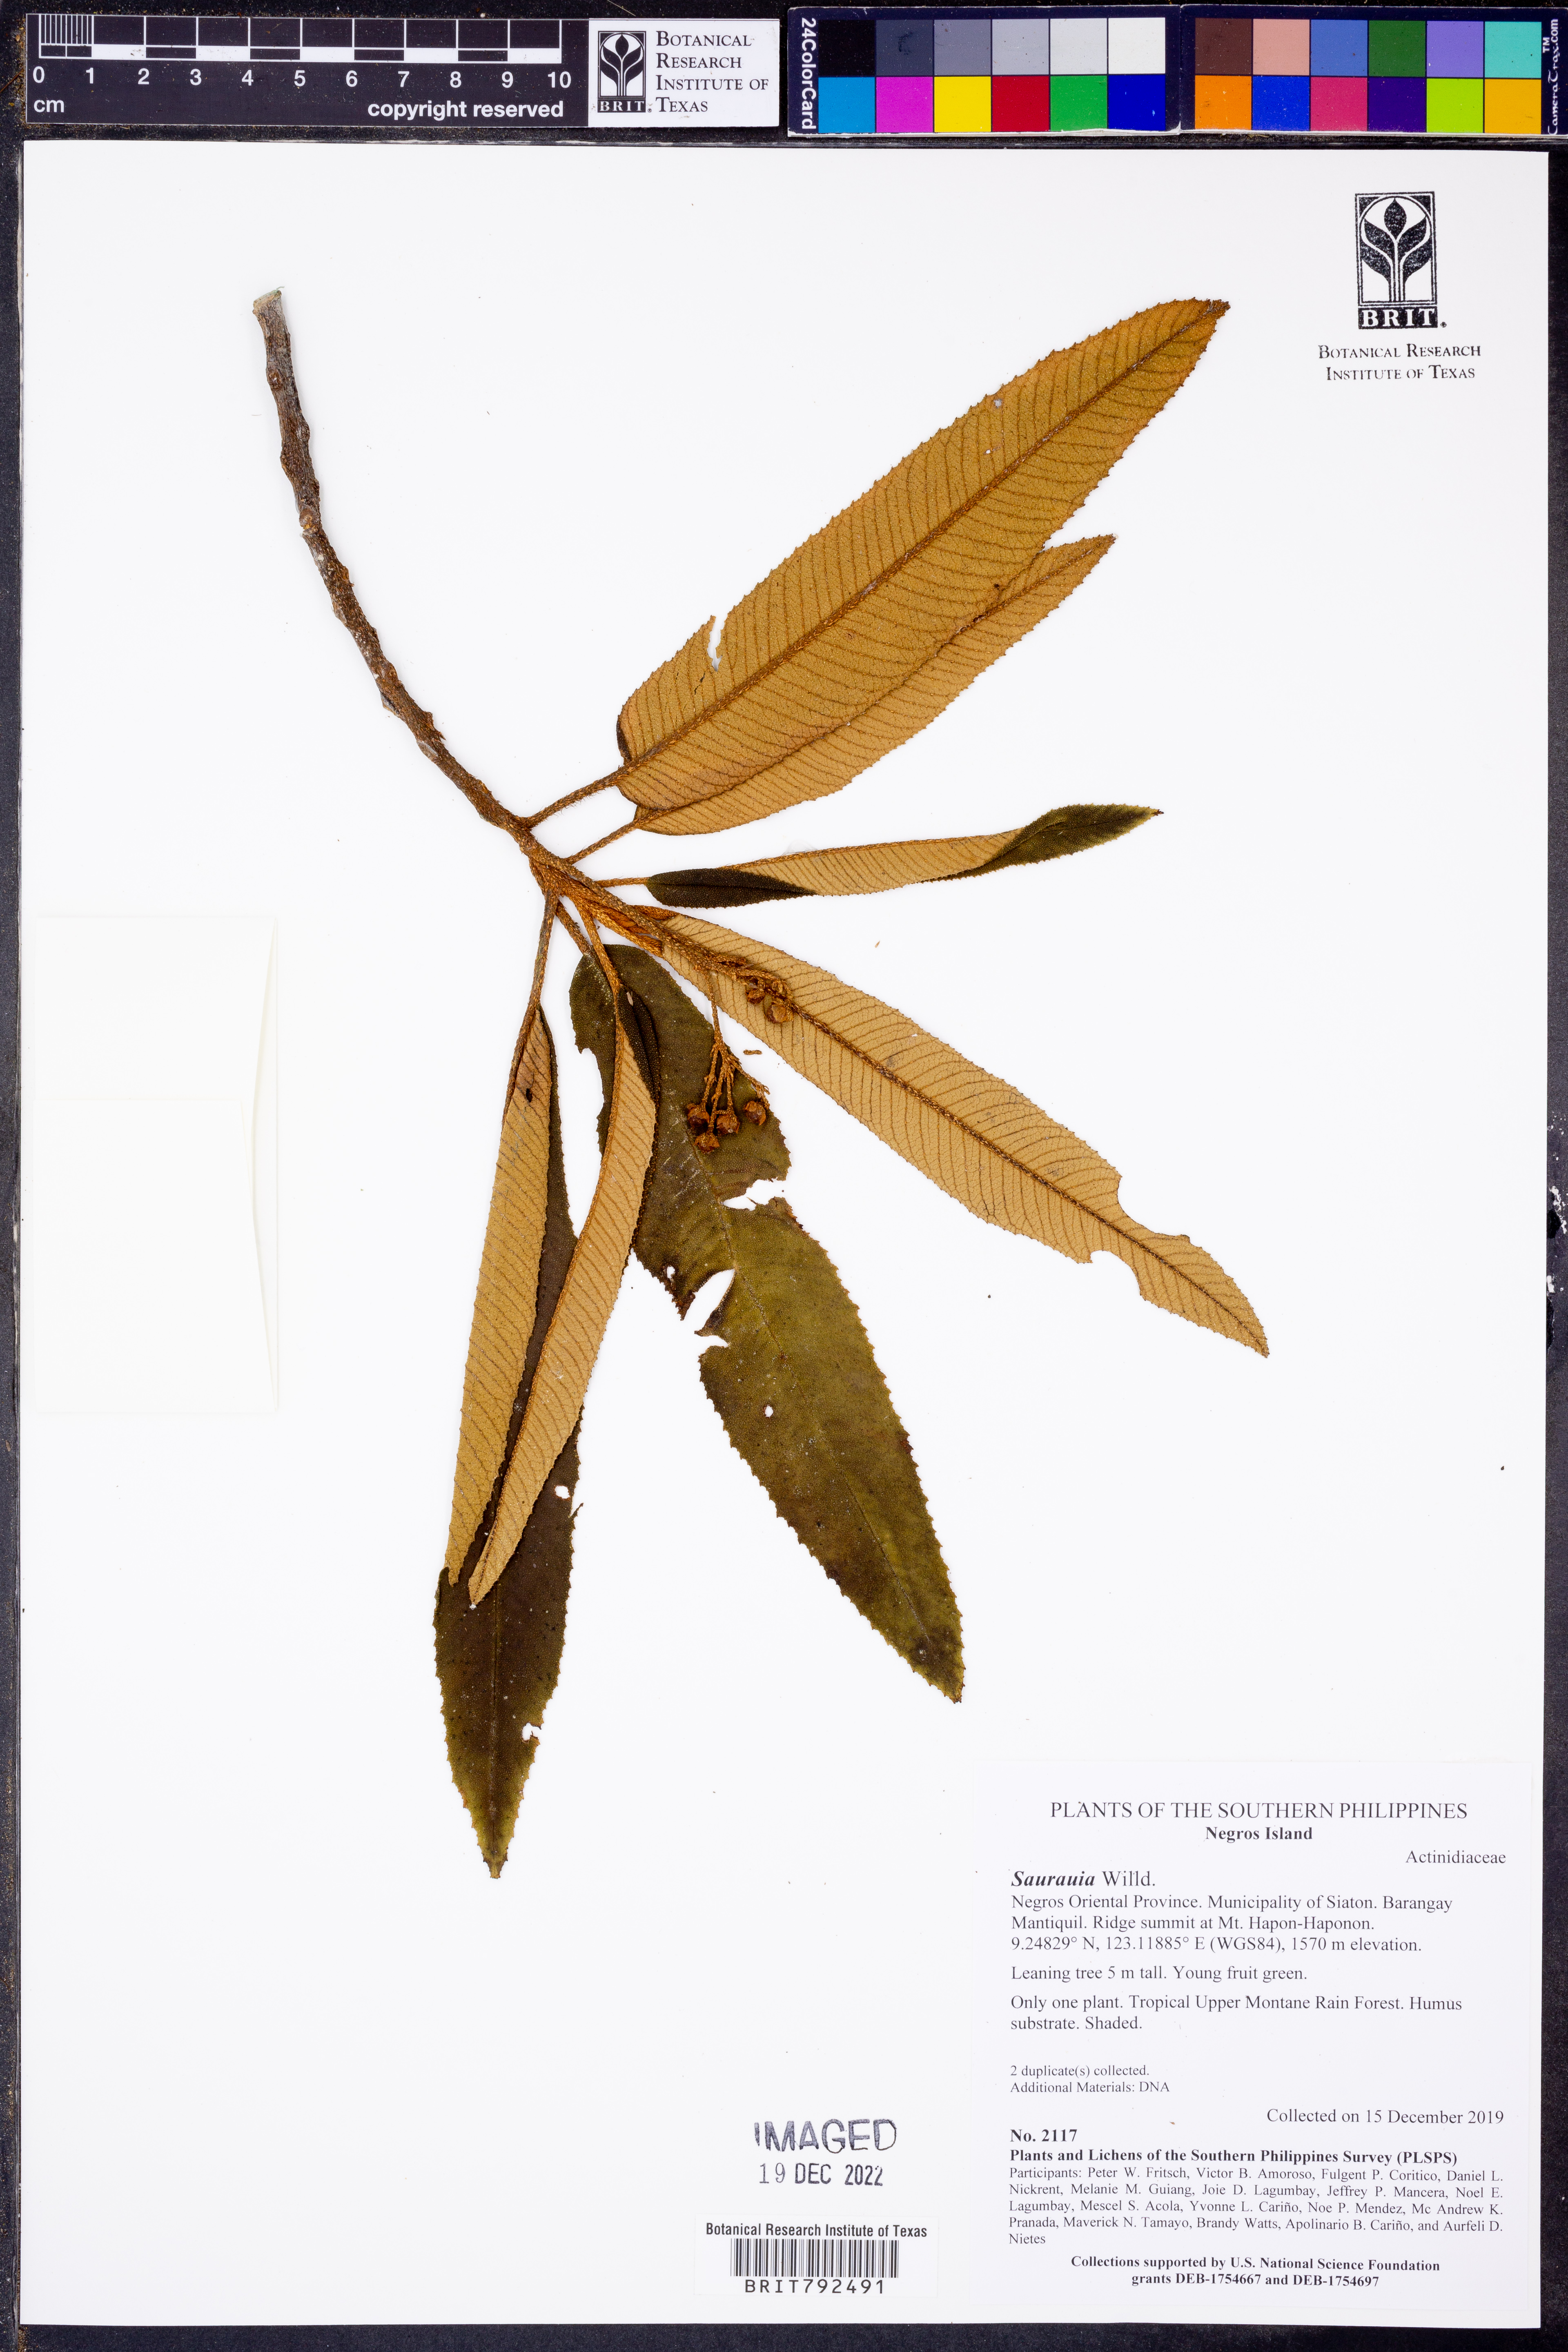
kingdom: Plantae
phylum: Tracheophyta
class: Magnoliopsida
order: Ericales
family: Actinidiaceae
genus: Saurauia
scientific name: Saurauia
